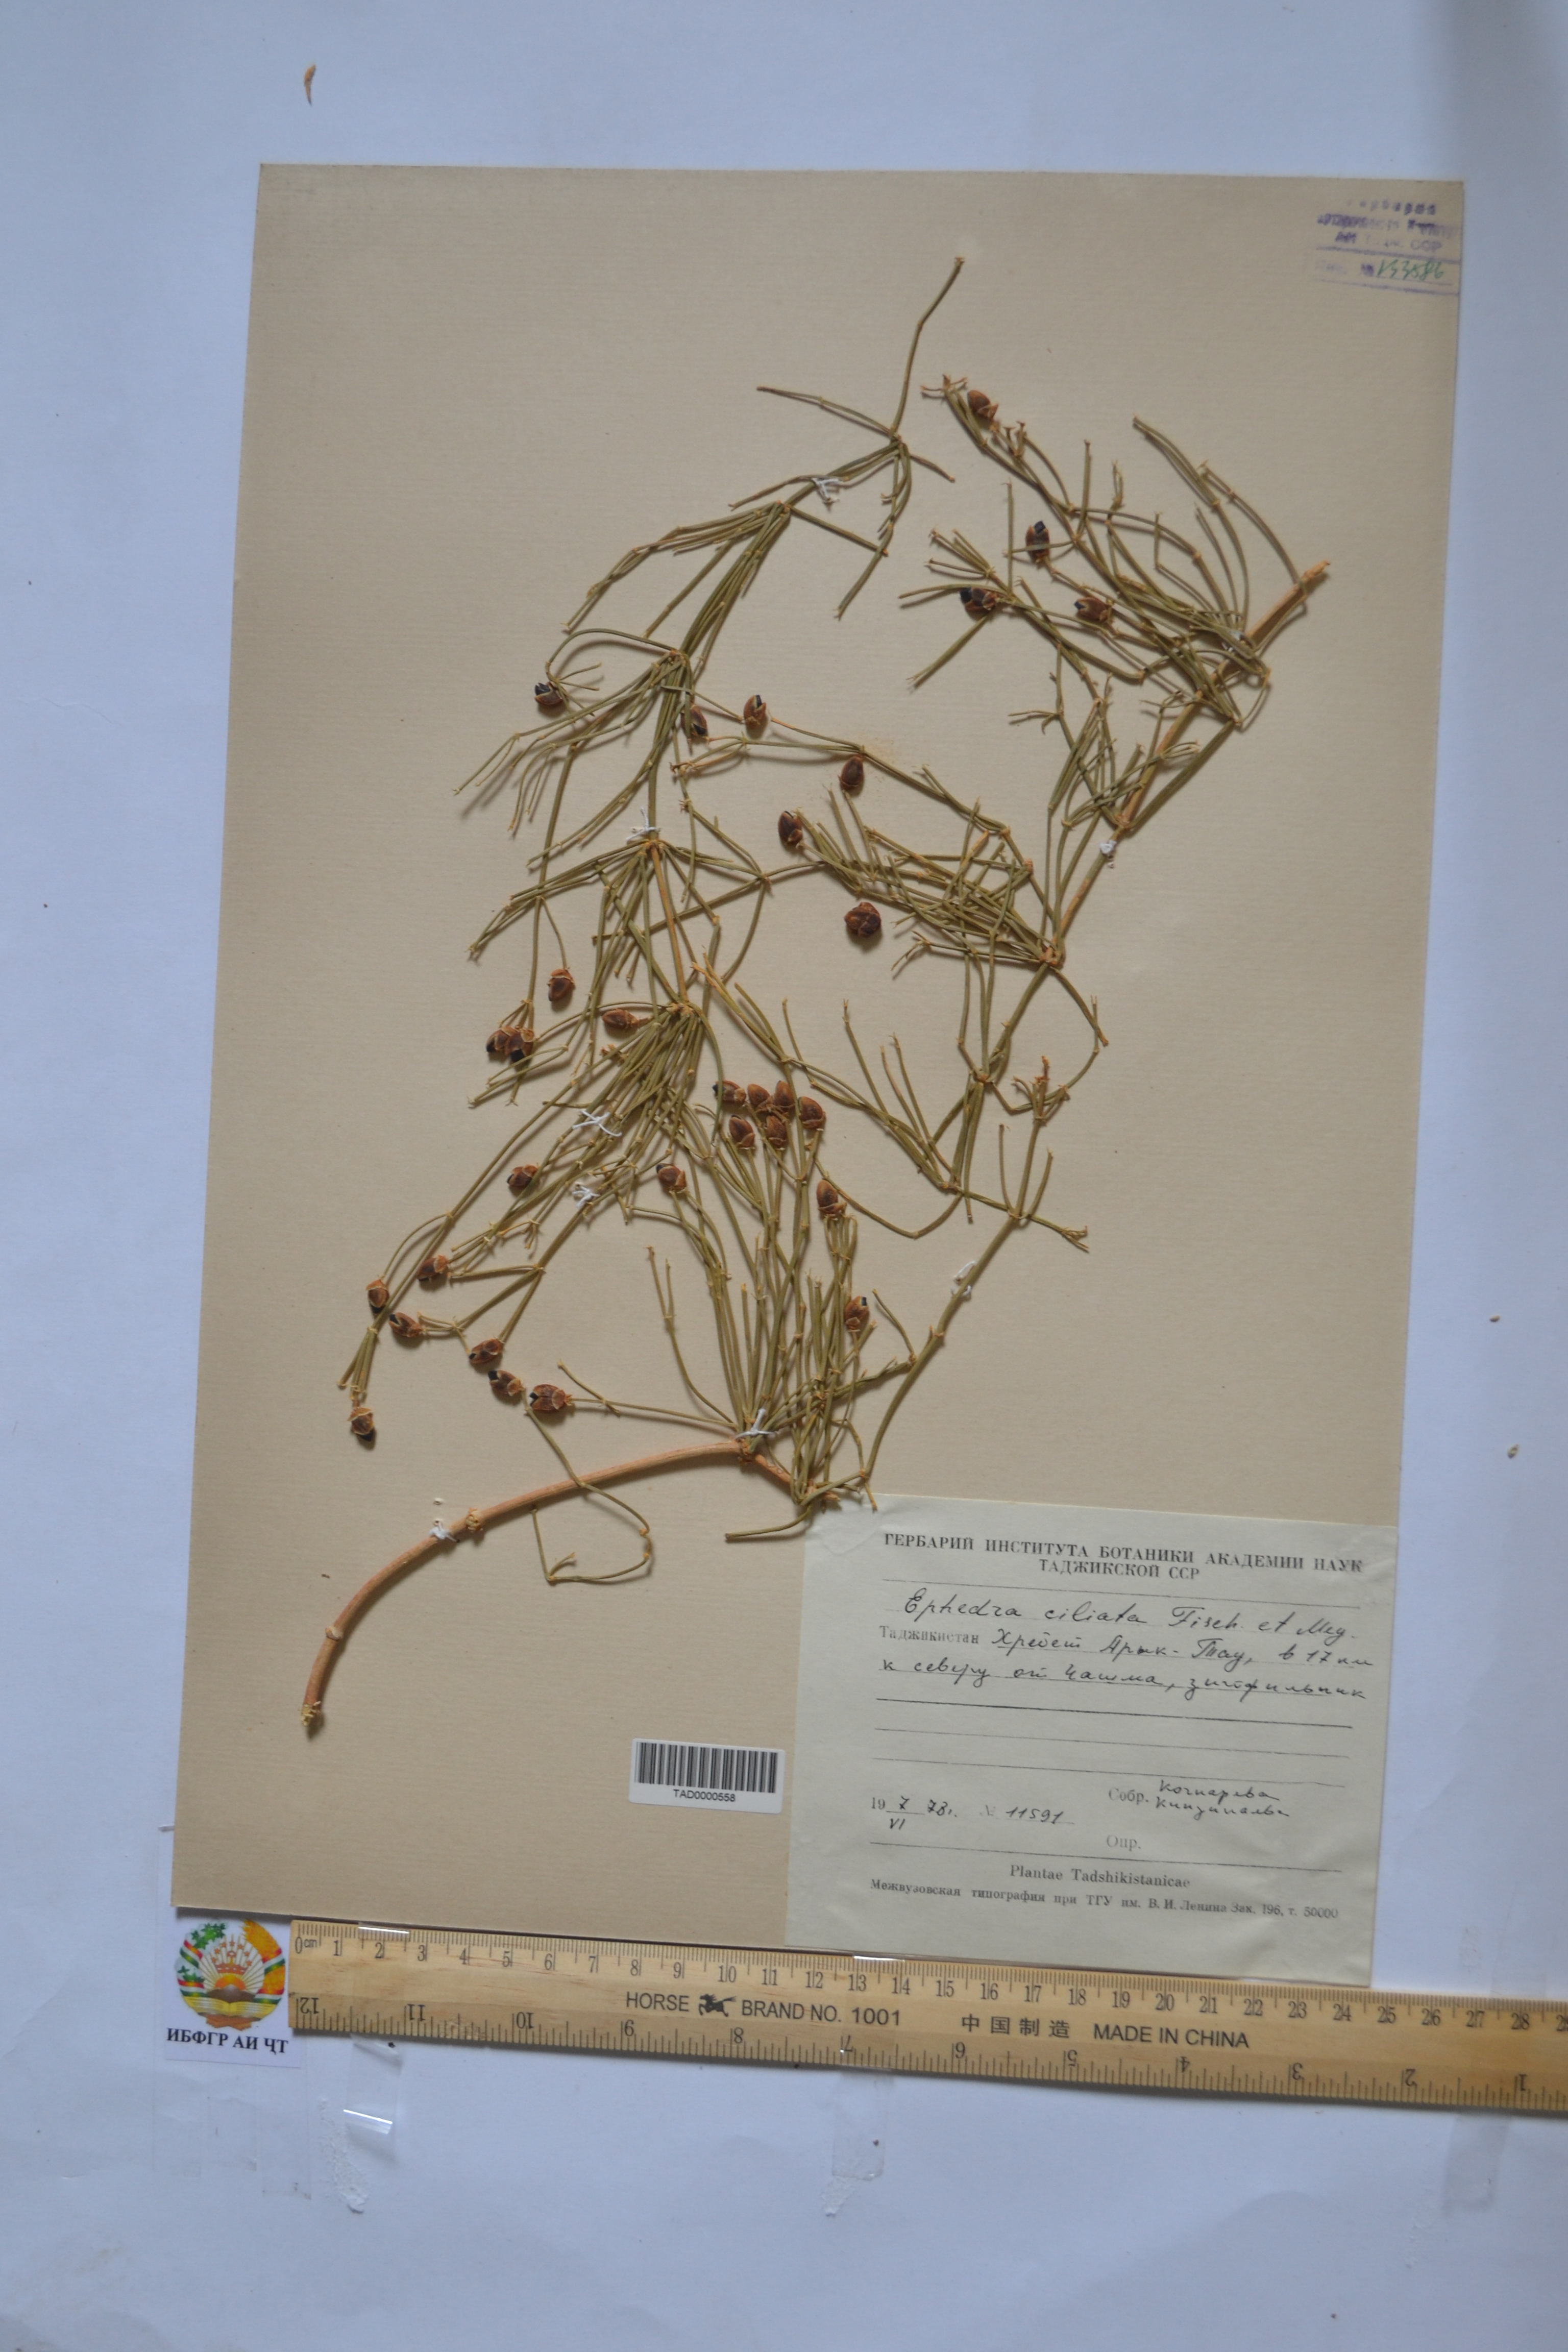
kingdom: Plantae
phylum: Tracheophyta
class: Gnetopsida
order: Ephedrales
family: Ephedraceae
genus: Ephedra
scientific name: Ephedra ciliata
